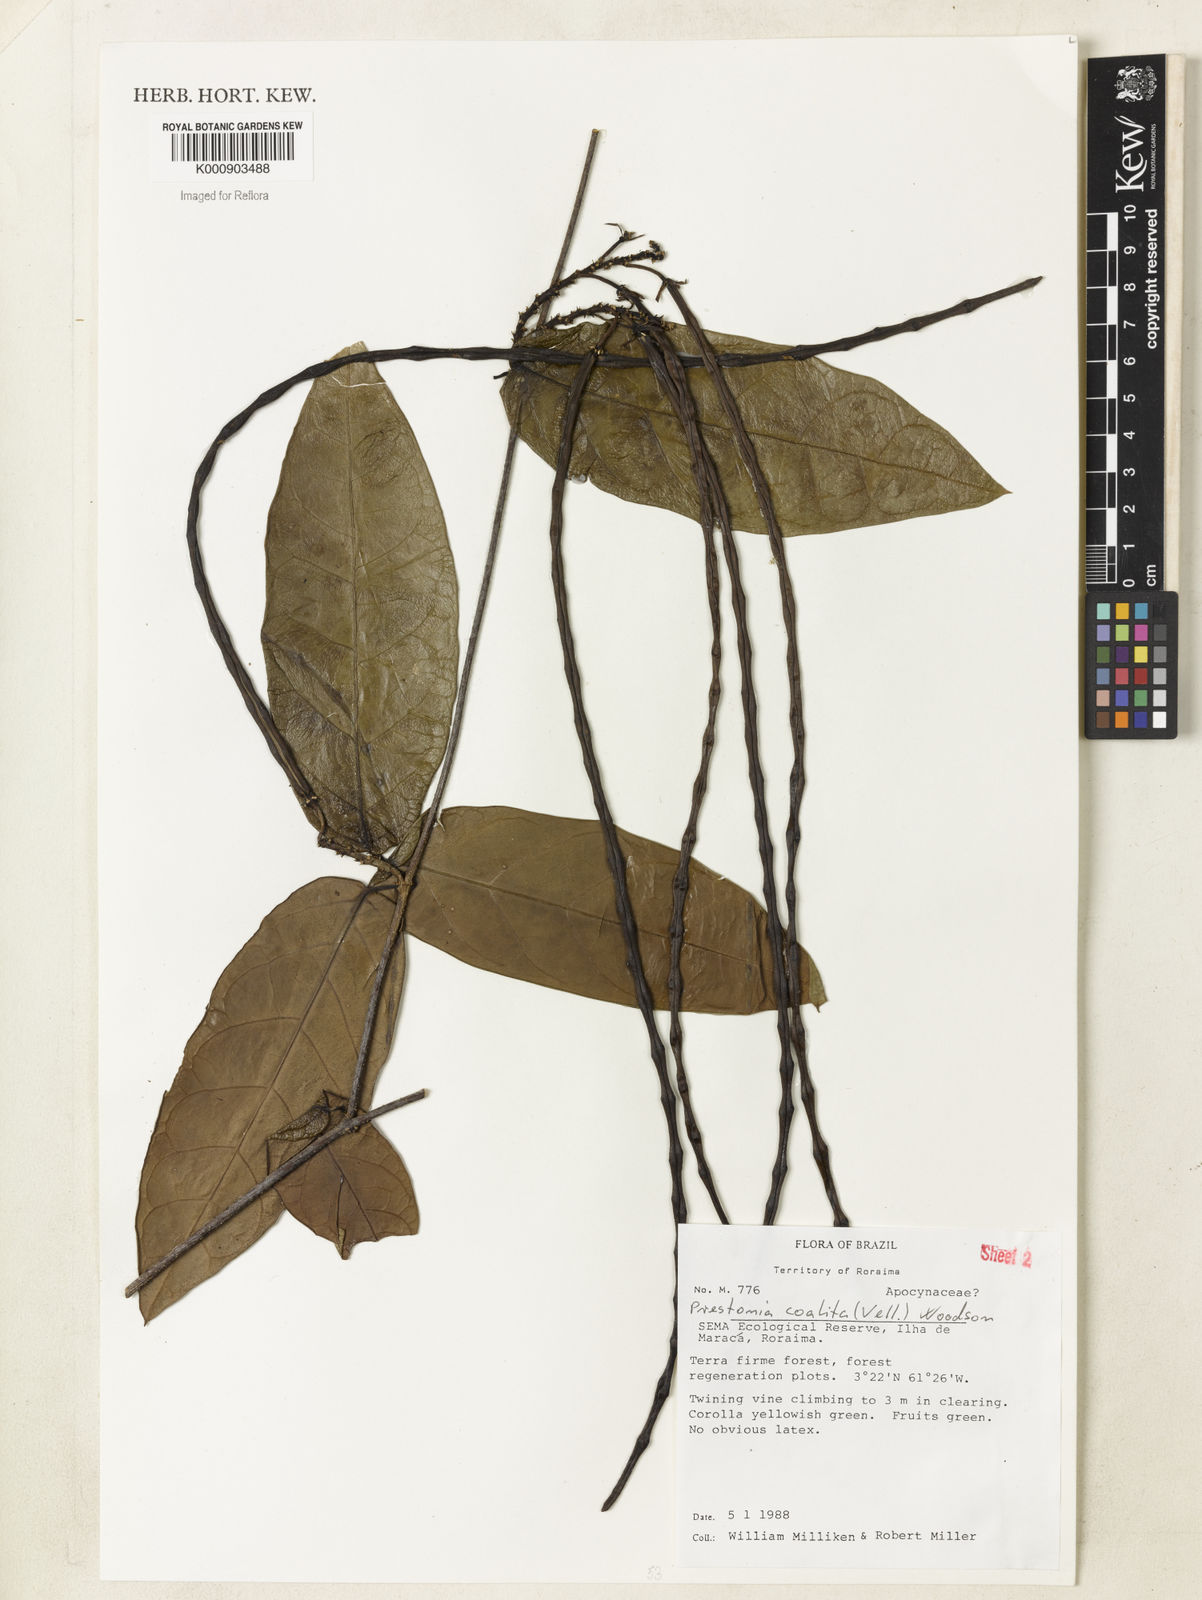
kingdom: Plantae
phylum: Tracheophyta
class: Magnoliopsida
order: Gentianales
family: Apocynaceae
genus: Prestonia
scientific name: Prestonia coalita
